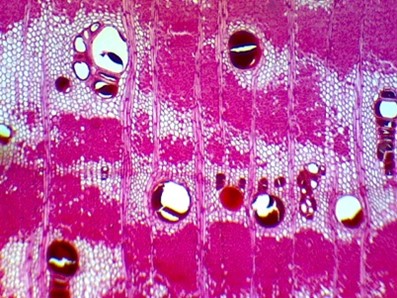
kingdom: Plantae
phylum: Tracheophyta
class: Magnoliopsida
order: Fabales
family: Fabaceae
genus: Prosopis
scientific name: Prosopis chilensis
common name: Algarrobo
